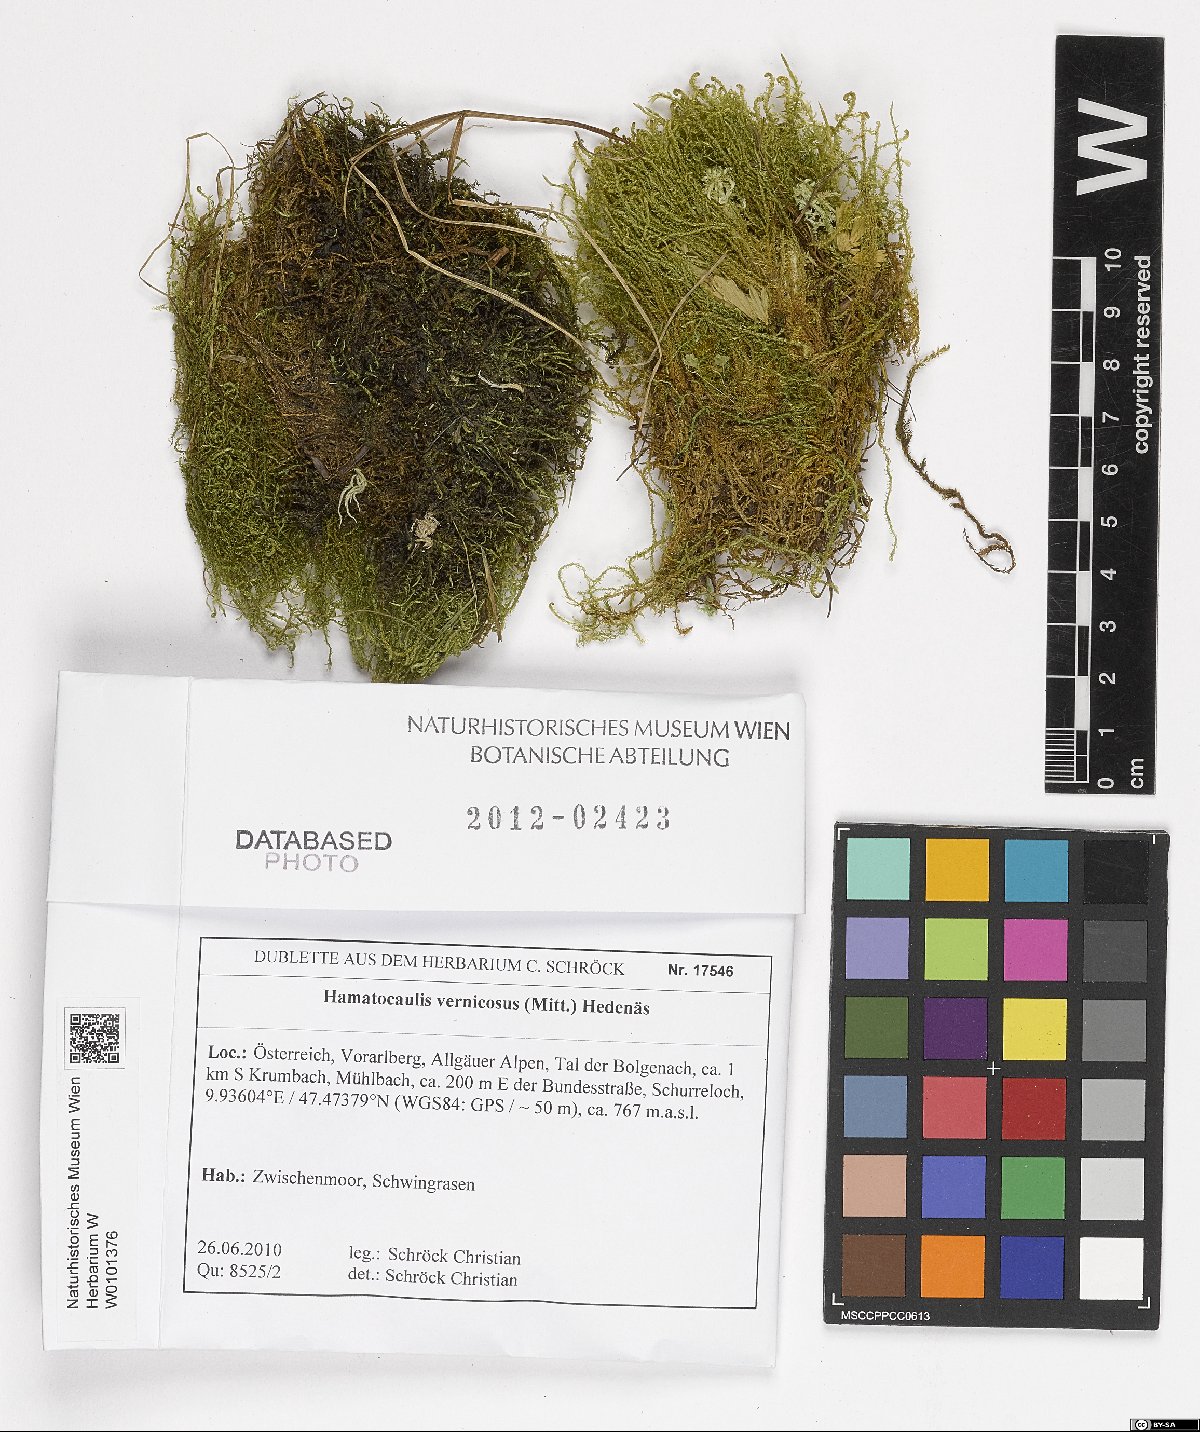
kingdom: Plantae
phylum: Bryophyta
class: Bryopsida
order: Hypnales
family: Scorpidiaceae
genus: Hamatocaulis
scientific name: Hamatocaulis vernicosus
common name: Varnished hook moss
